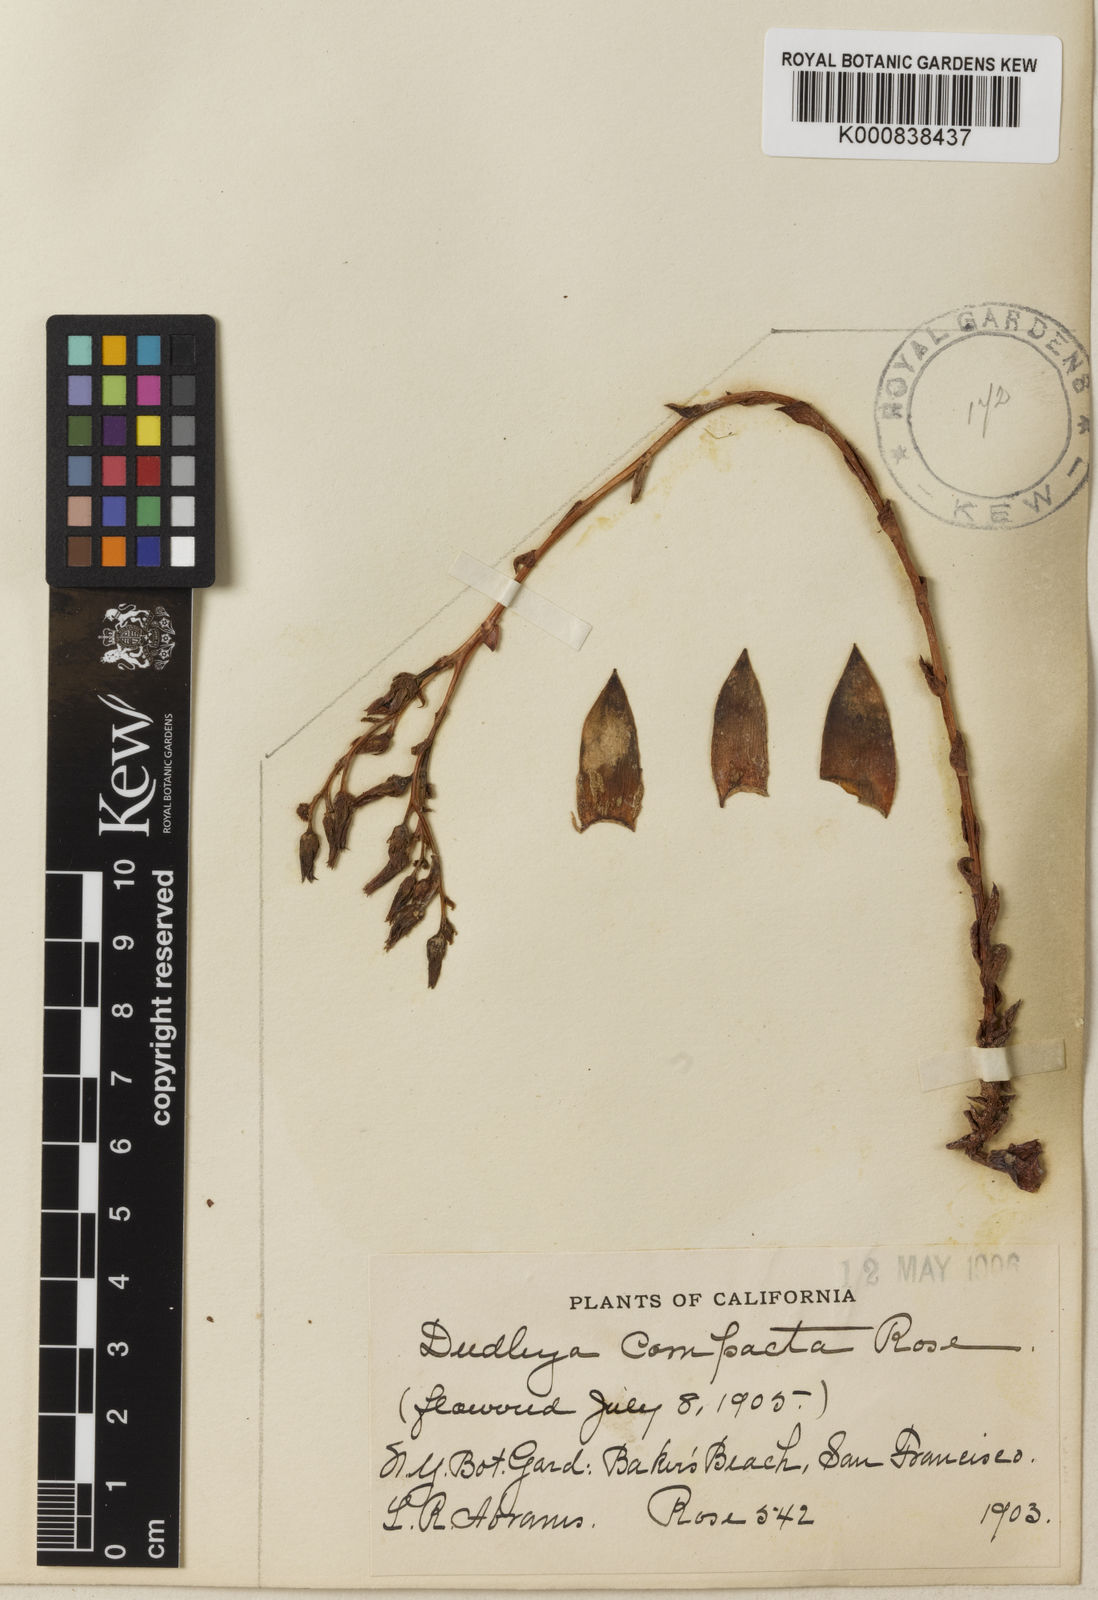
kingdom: Plantae
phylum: Tracheophyta
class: Magnoliopsida
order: Saxifragales
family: Crassulaceae
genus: Dudleya
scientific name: Dudleya farinosa
